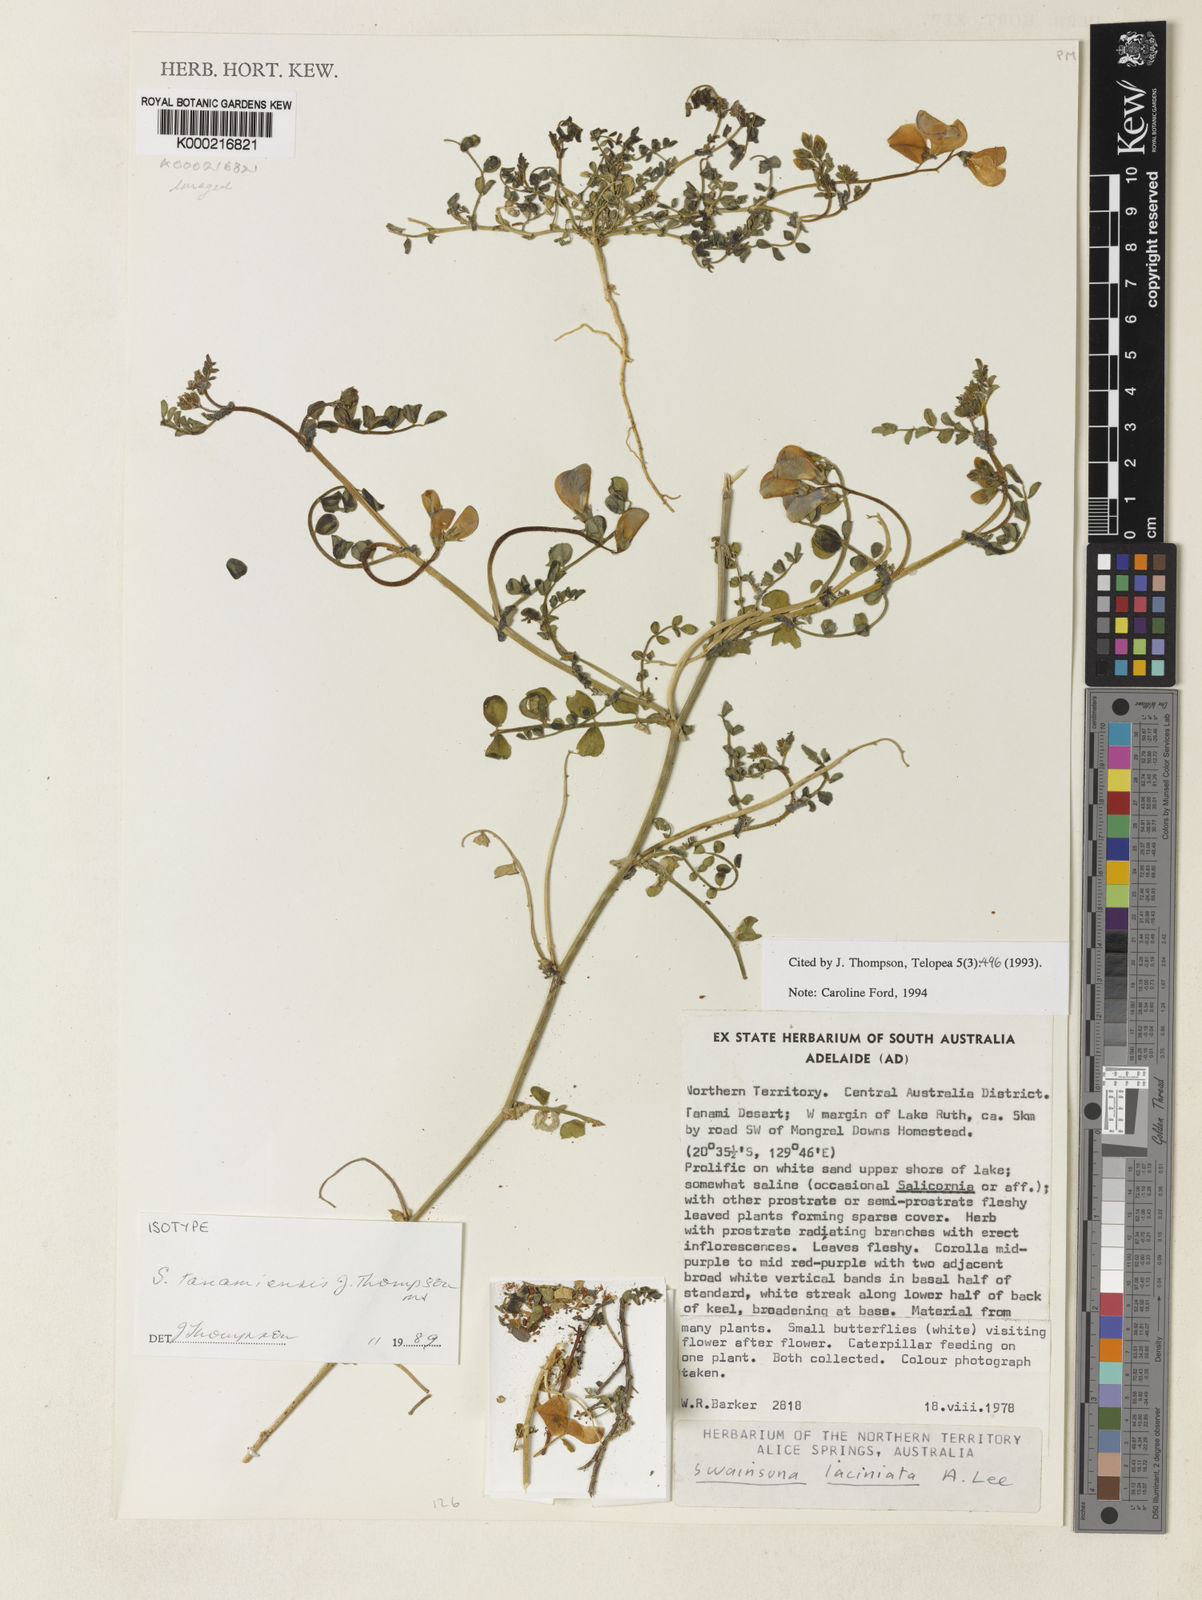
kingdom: Plantae
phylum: Tracheophyta
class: Magnoliopsida
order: Fabales
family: Fabaceae
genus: Swainsona
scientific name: Swainsona tanamiensis
